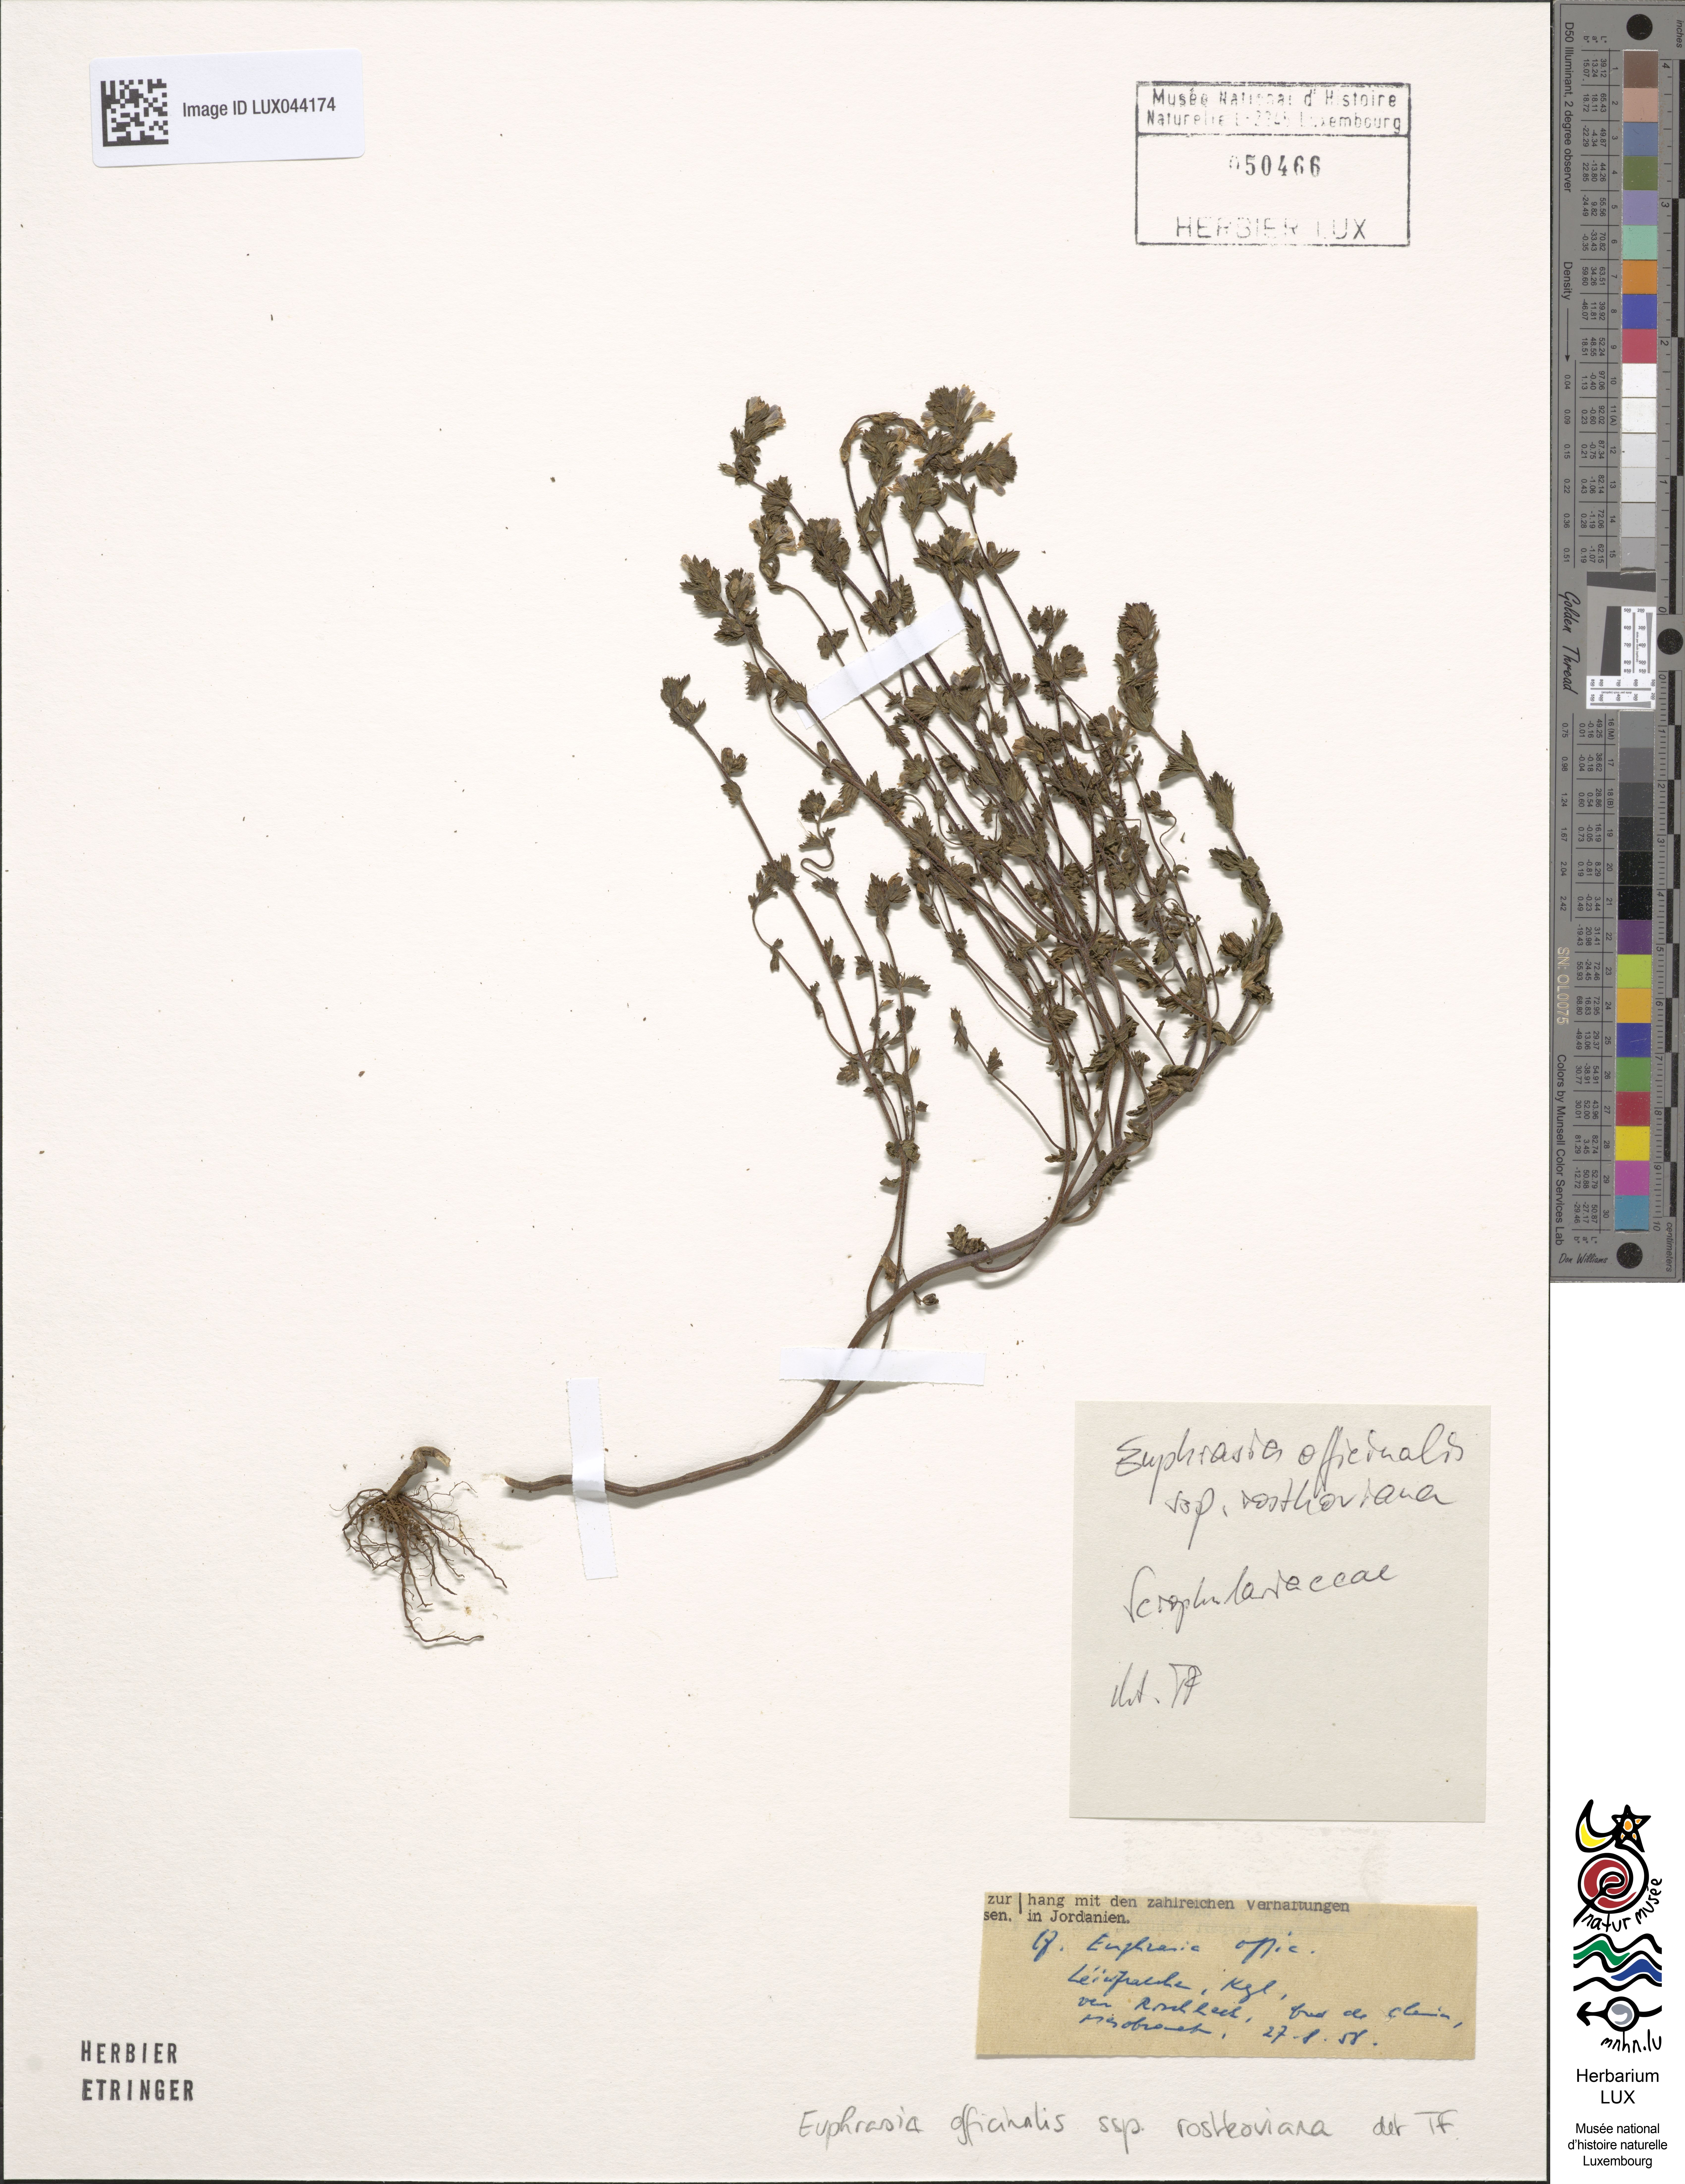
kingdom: Plantae
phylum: Tracheophyta
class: Magnoliopsida
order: Lamiales
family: Orobanchaceae
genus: Euphrasia
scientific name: Euphrasia officinalis
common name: Eyebright
